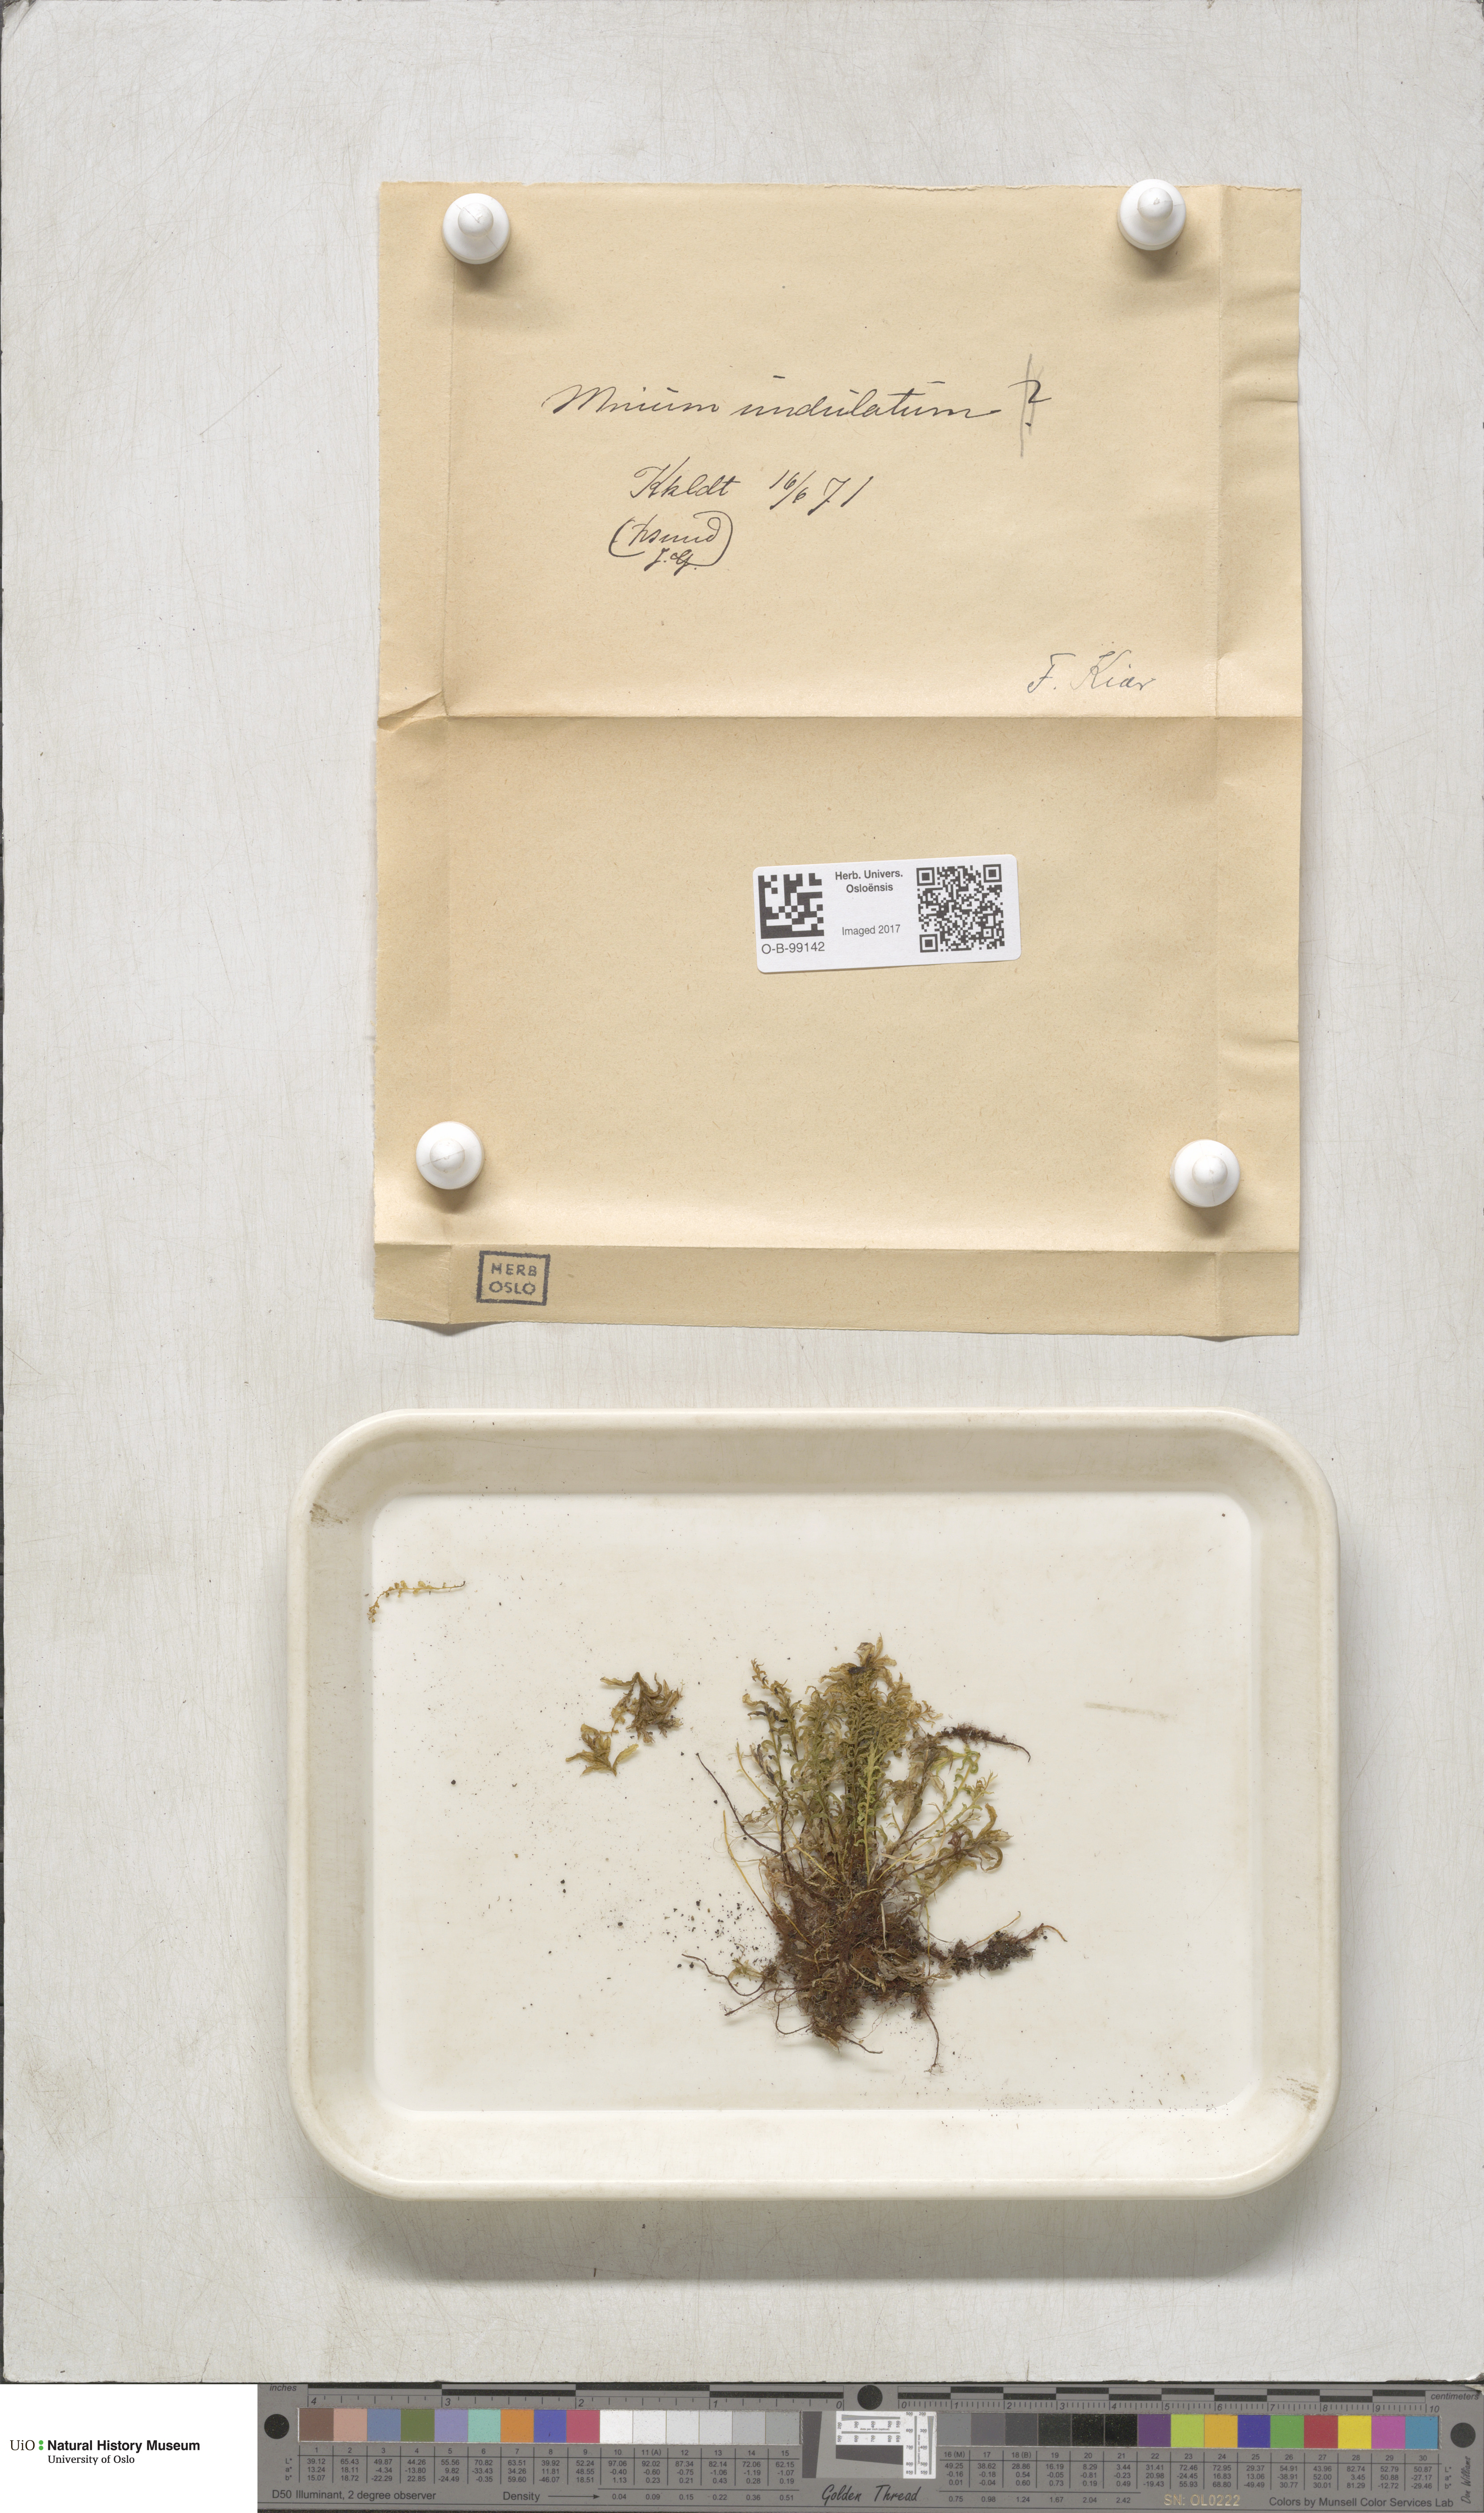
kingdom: Plantae
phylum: Bryophyta
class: Bryopsida
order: Bryales
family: Mniaceae
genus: Plagiomnium
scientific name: Plagiomnium undulatum
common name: Hart's-tongue thyme-moss
